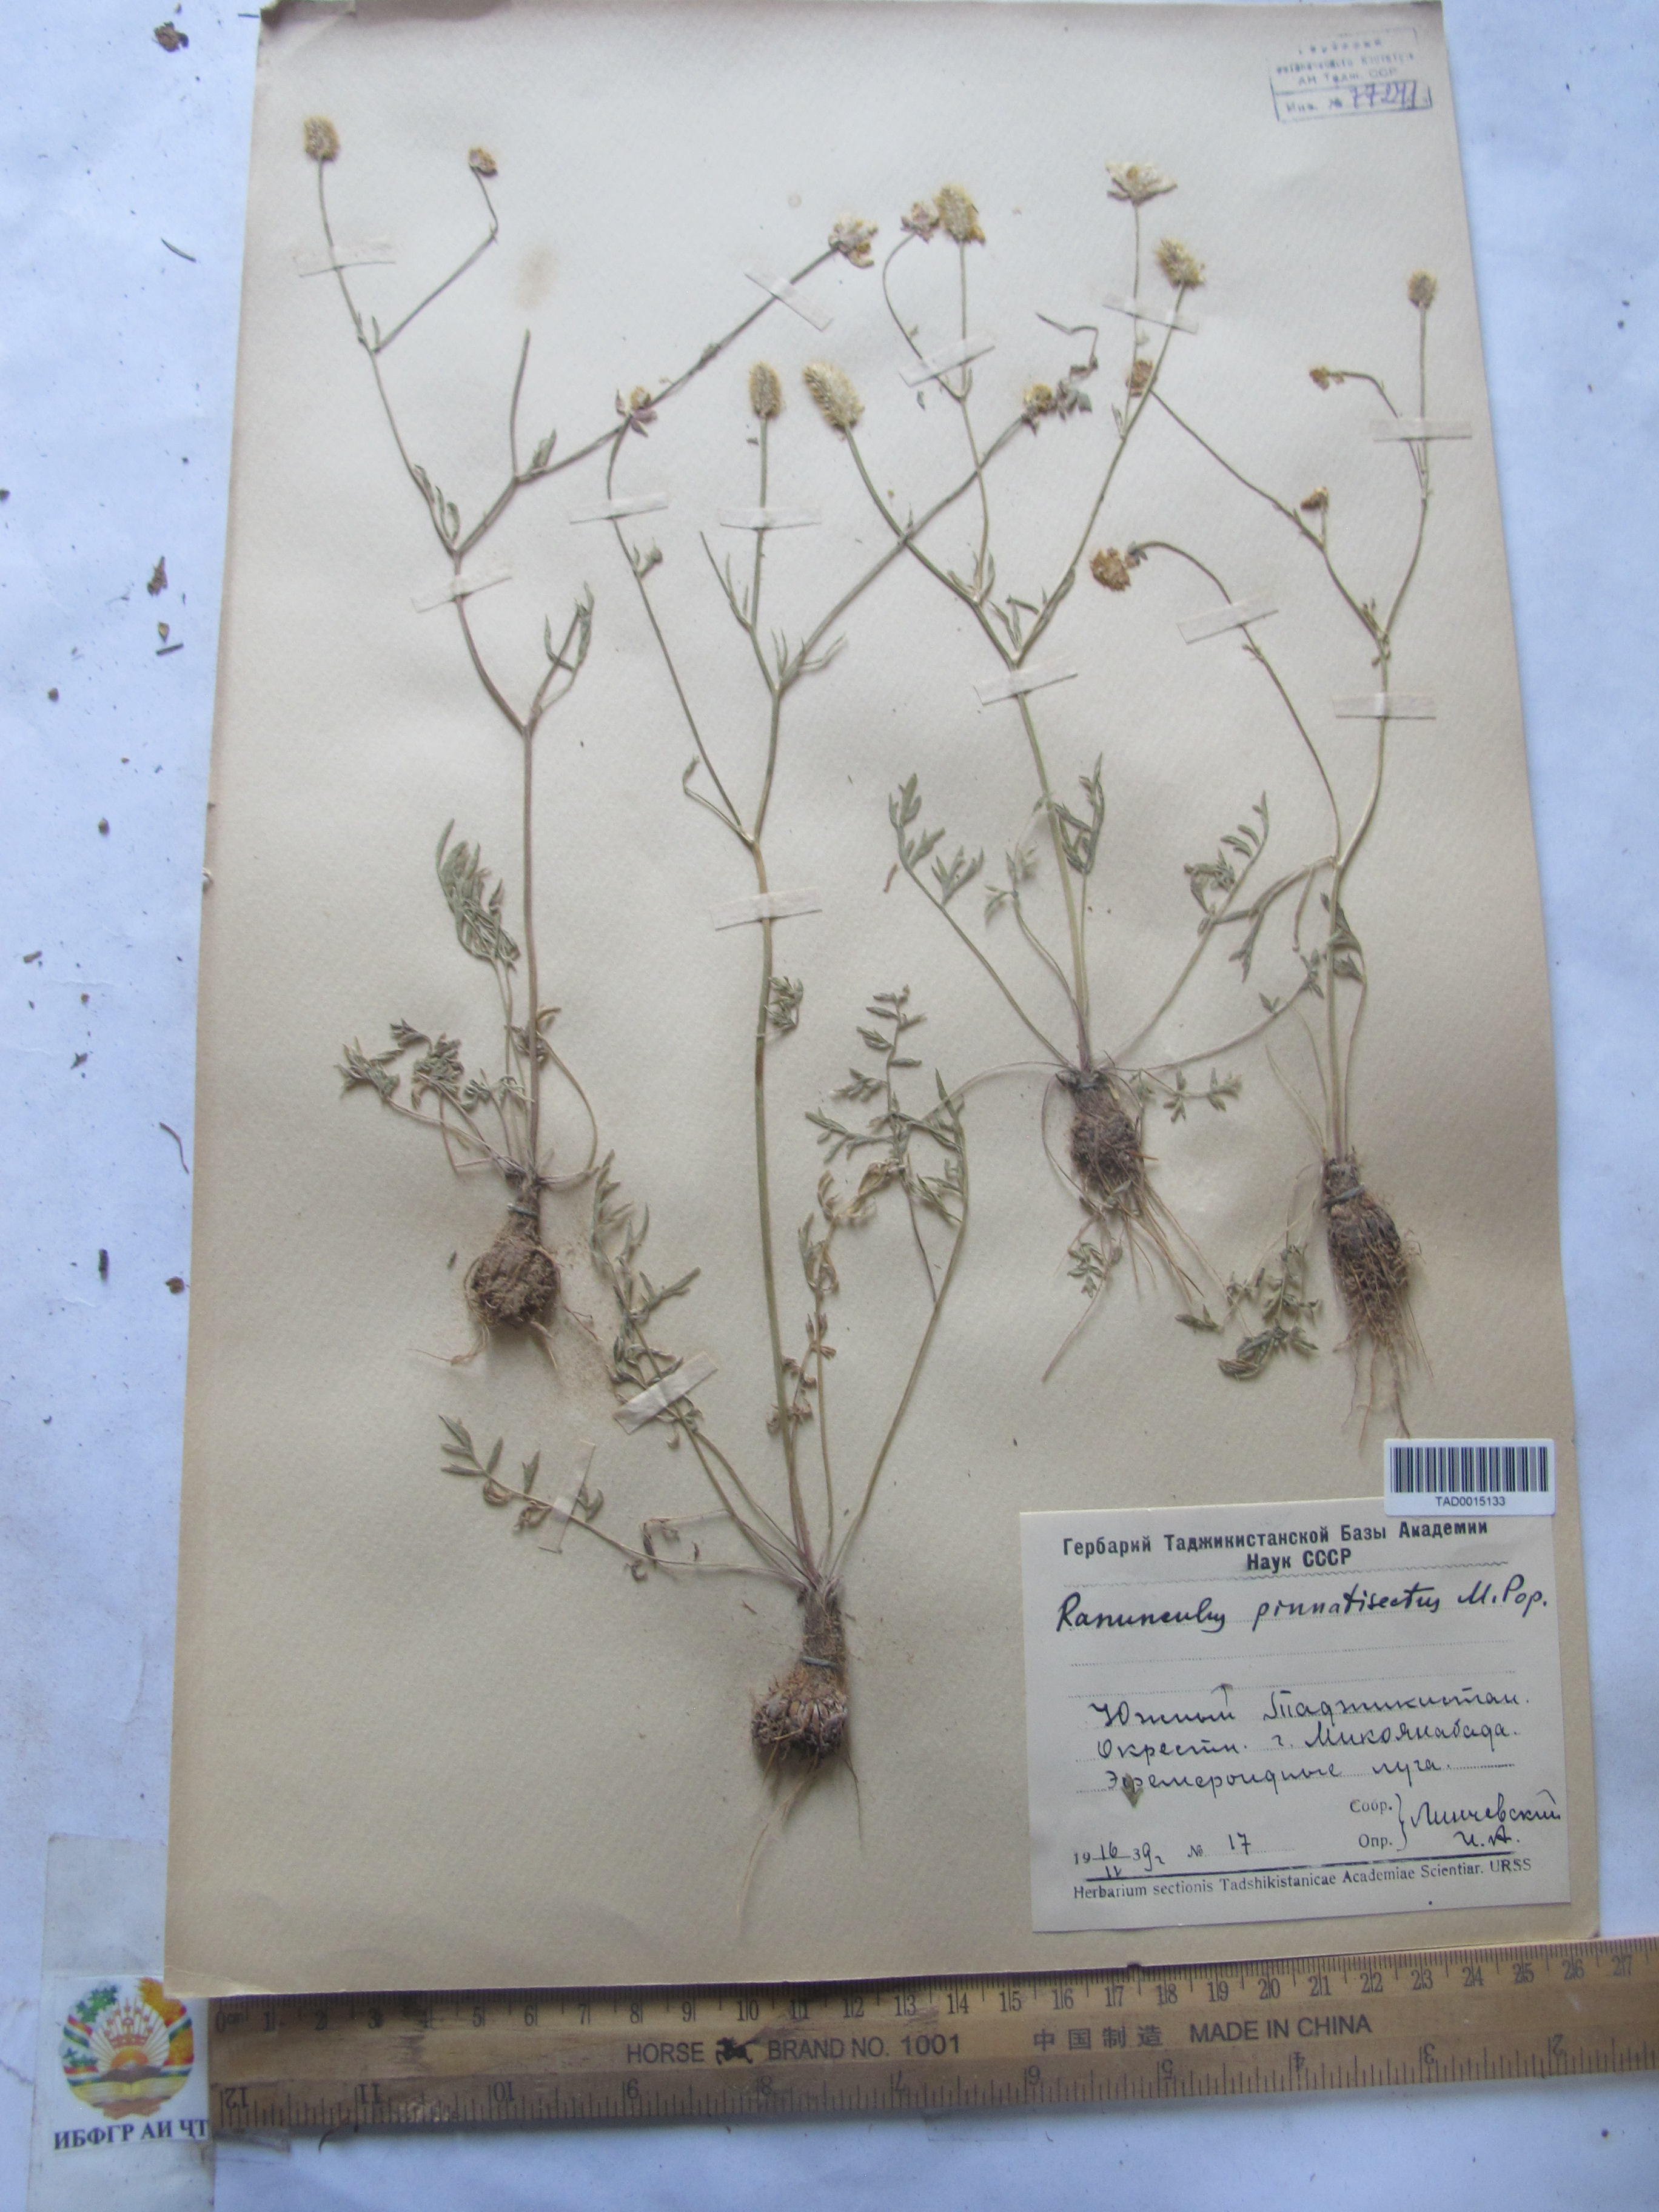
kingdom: Plantae
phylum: Tracheophyta
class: Magnoliopsida
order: Ranunculales
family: Ranunculaceae
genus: Ranunculus
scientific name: Ranunculus pinnatisectus
